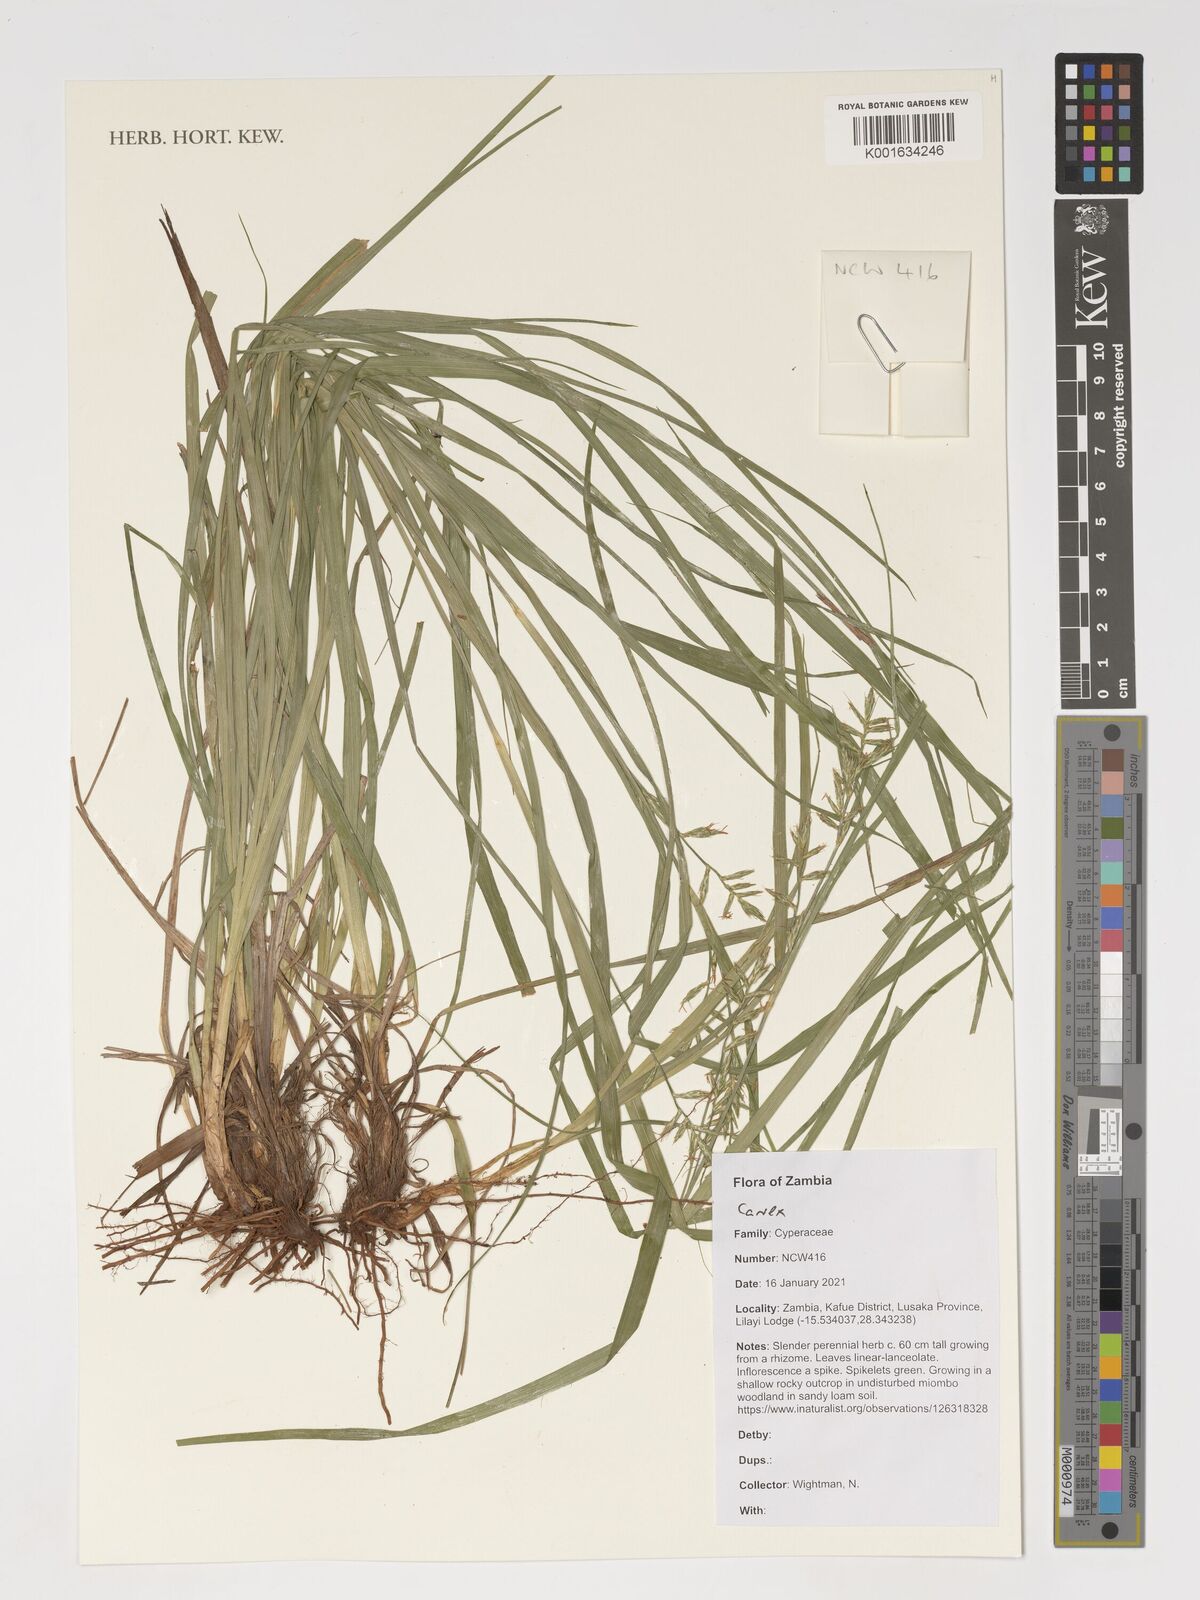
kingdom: Plantae
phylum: Tracheophyta
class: Liliopsida
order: Poales
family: Cyperaceae
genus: Carex
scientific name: Carex
